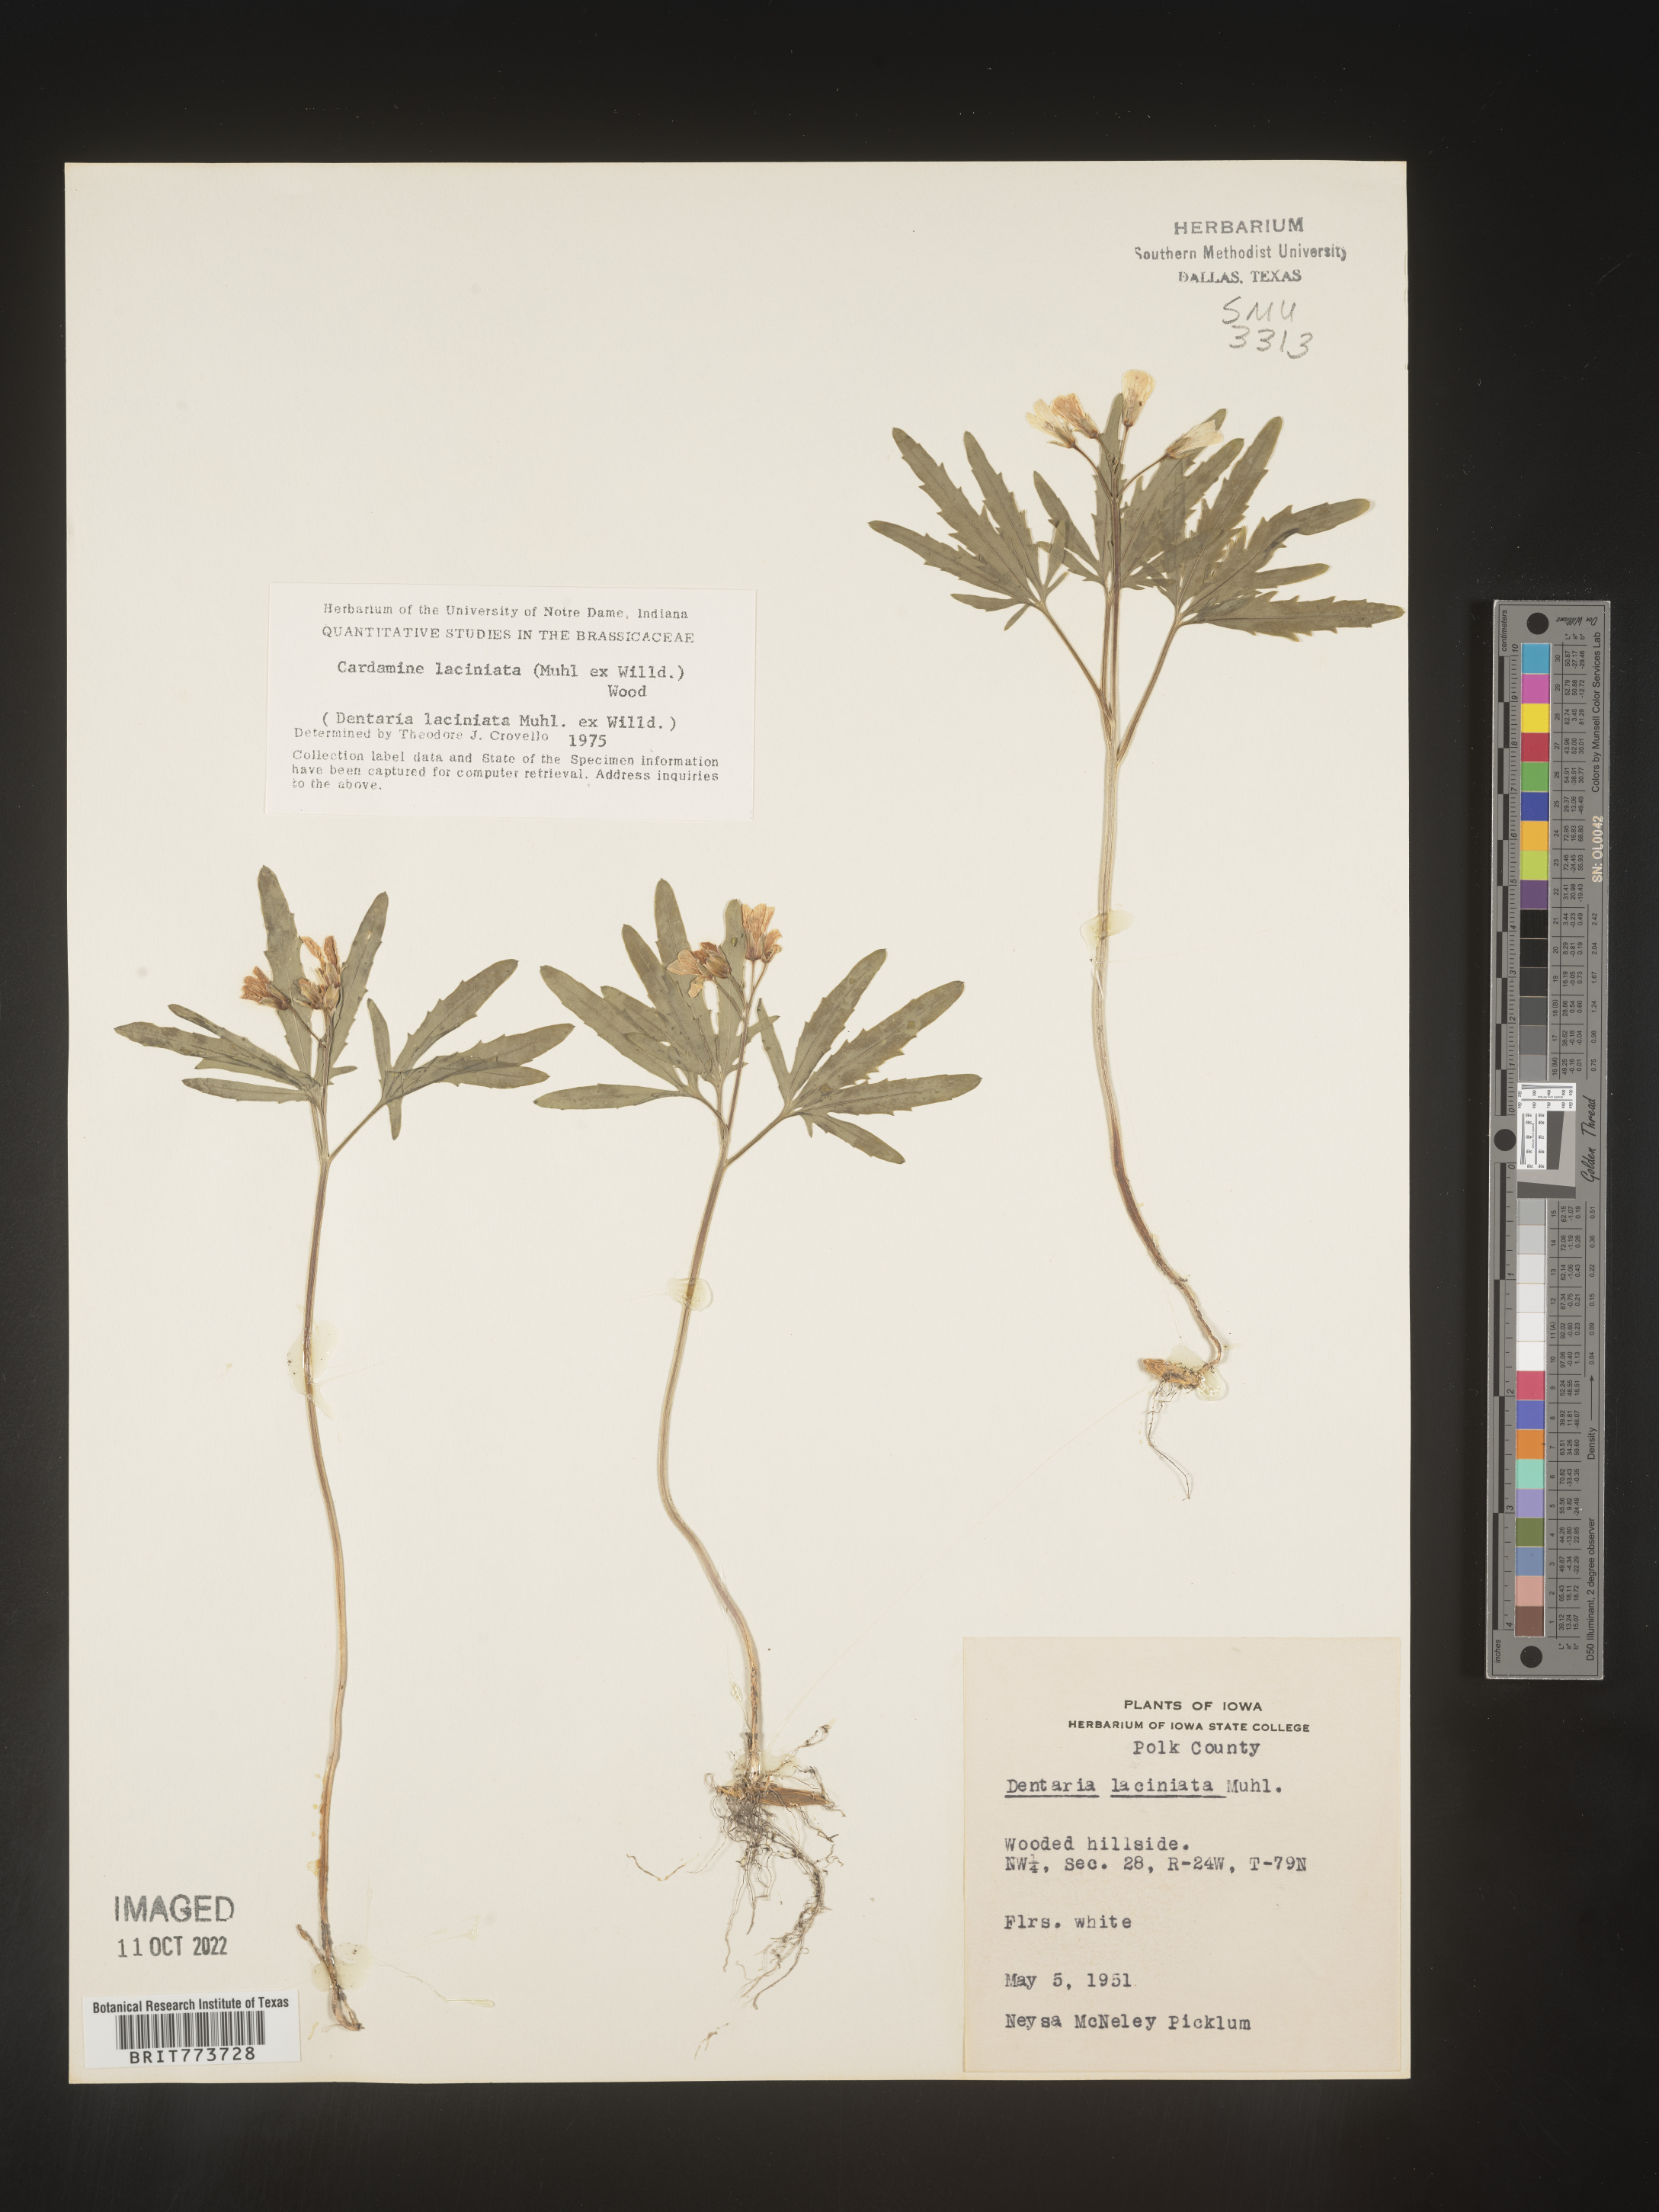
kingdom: Plantae
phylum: Tracheophyta
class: Magnoliopsida
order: Brassicales
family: Brassicaceae
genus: Rorippa
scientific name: Rorippa laciniata
